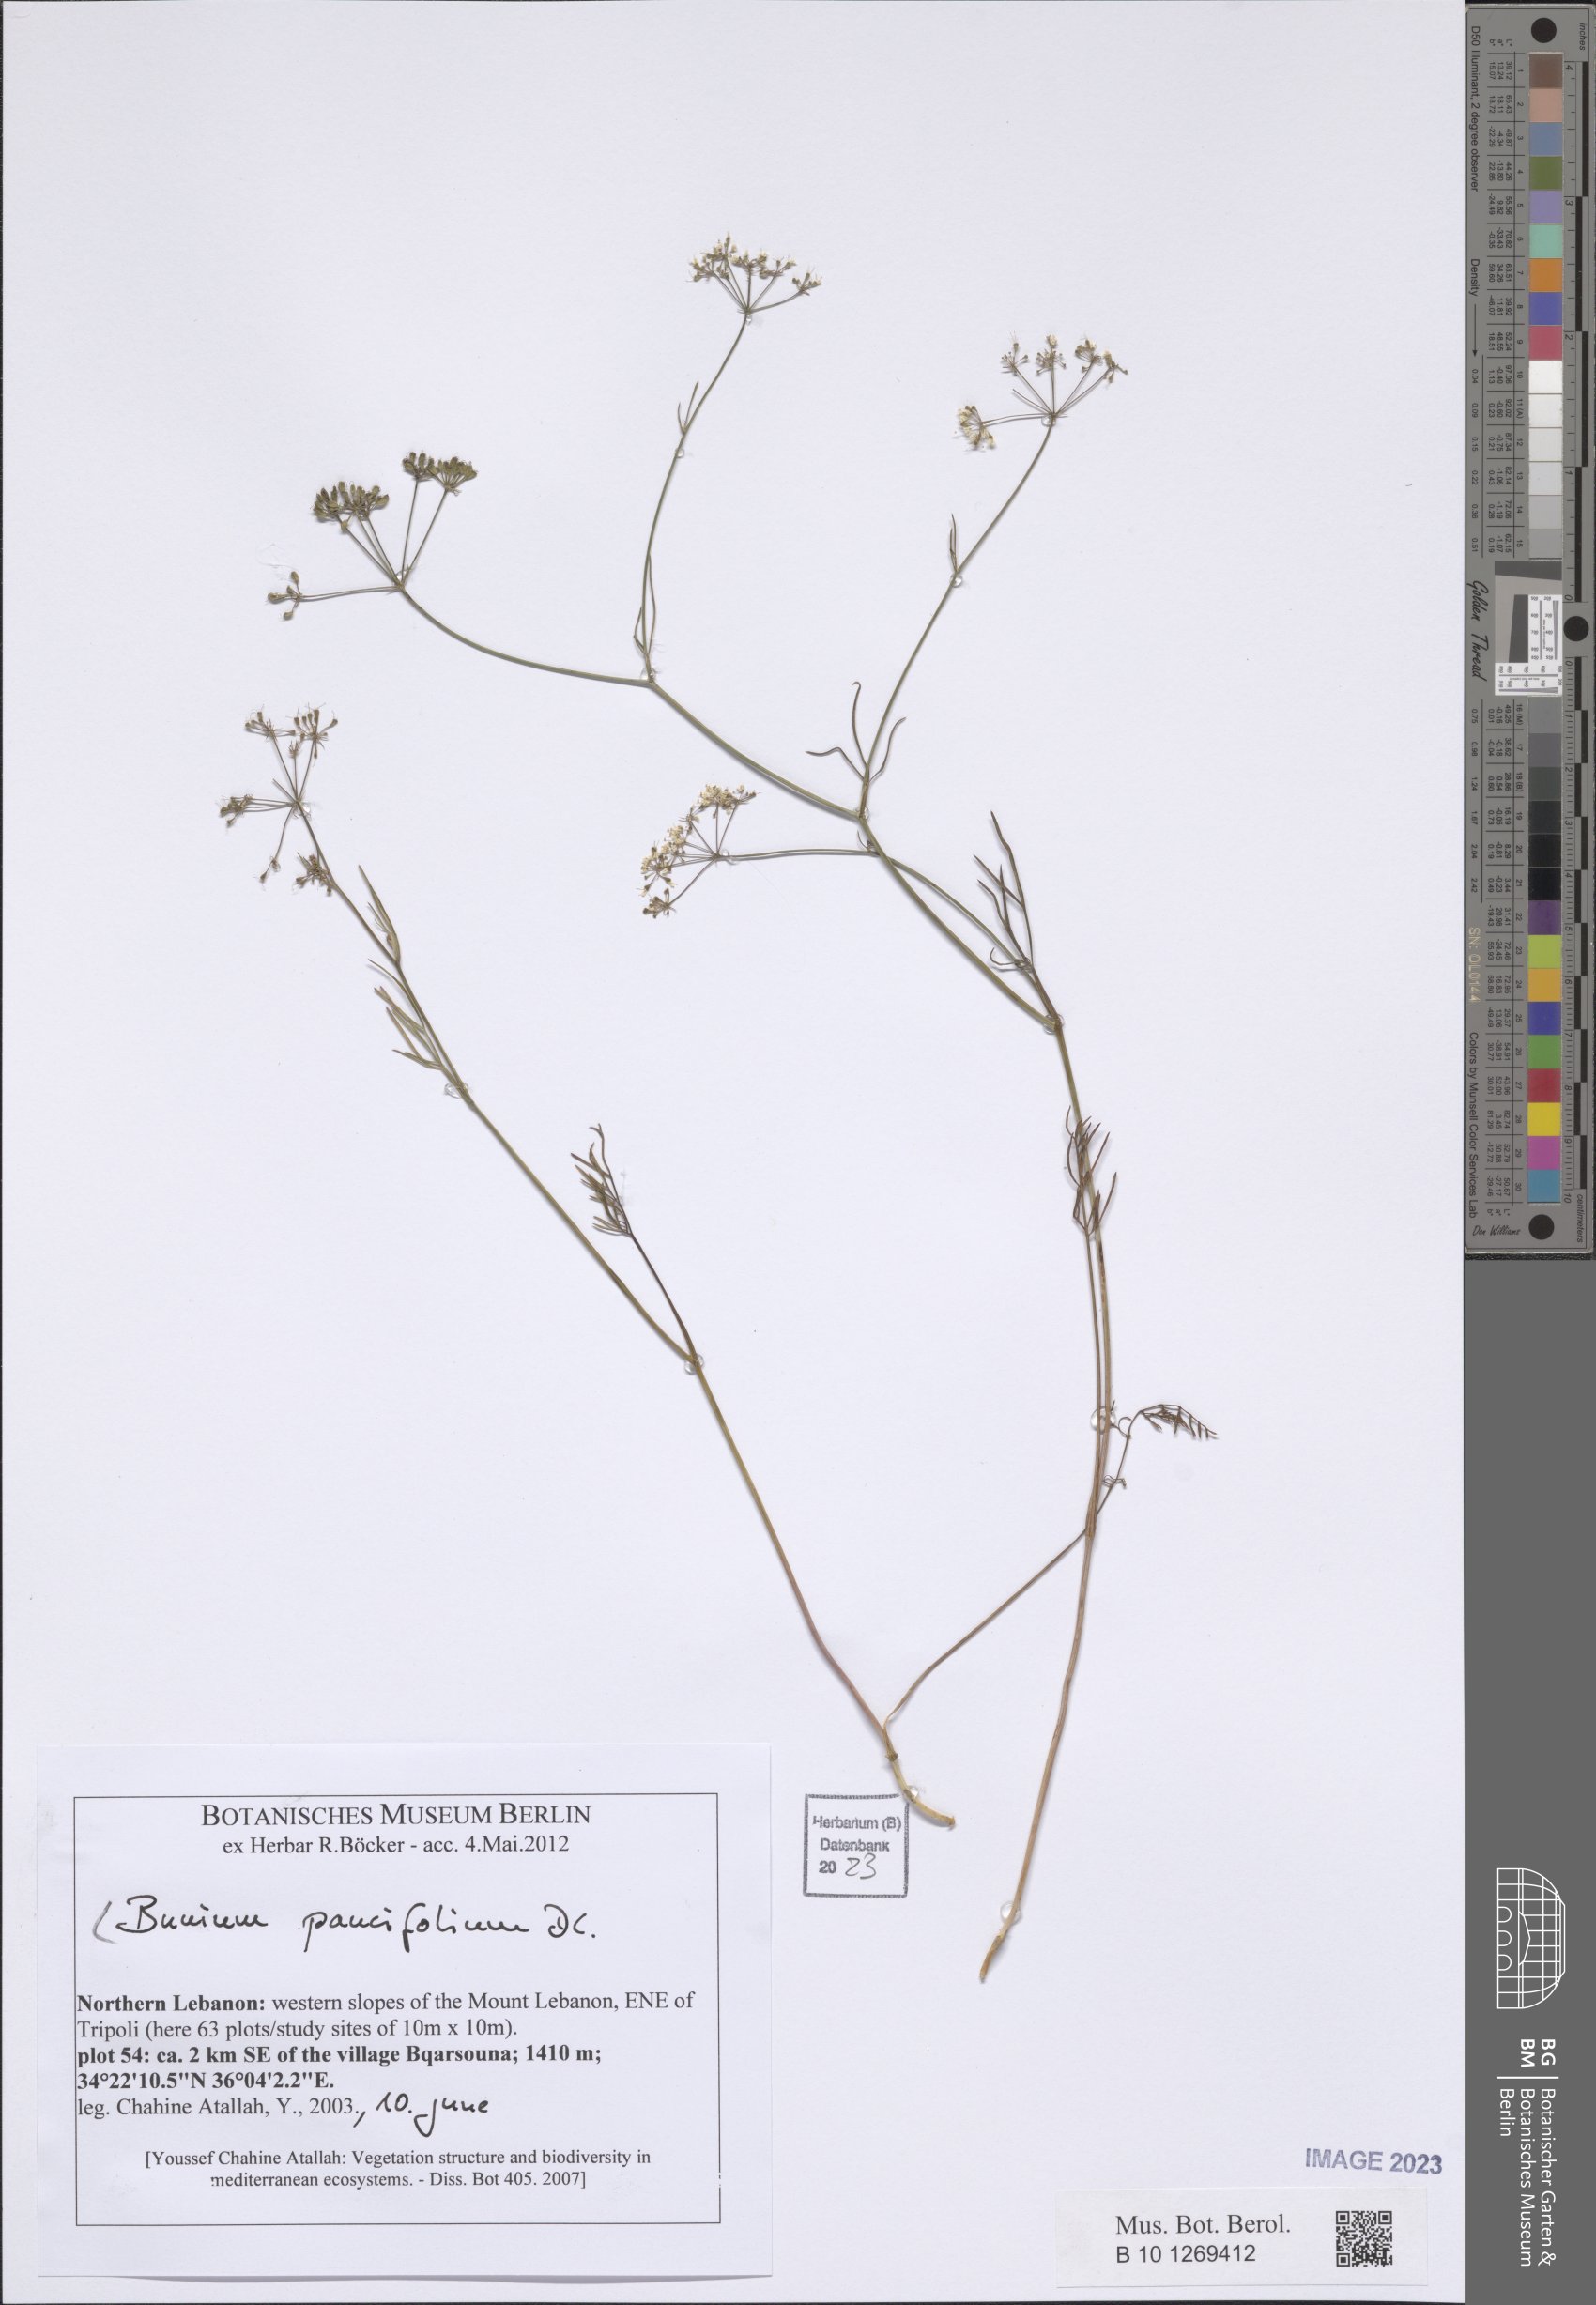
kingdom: Plantae
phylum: Tracheophyta
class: Magnoliopsida
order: Apiales
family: Apiaceae
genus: Bunium
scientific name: Bunium paucifolium
